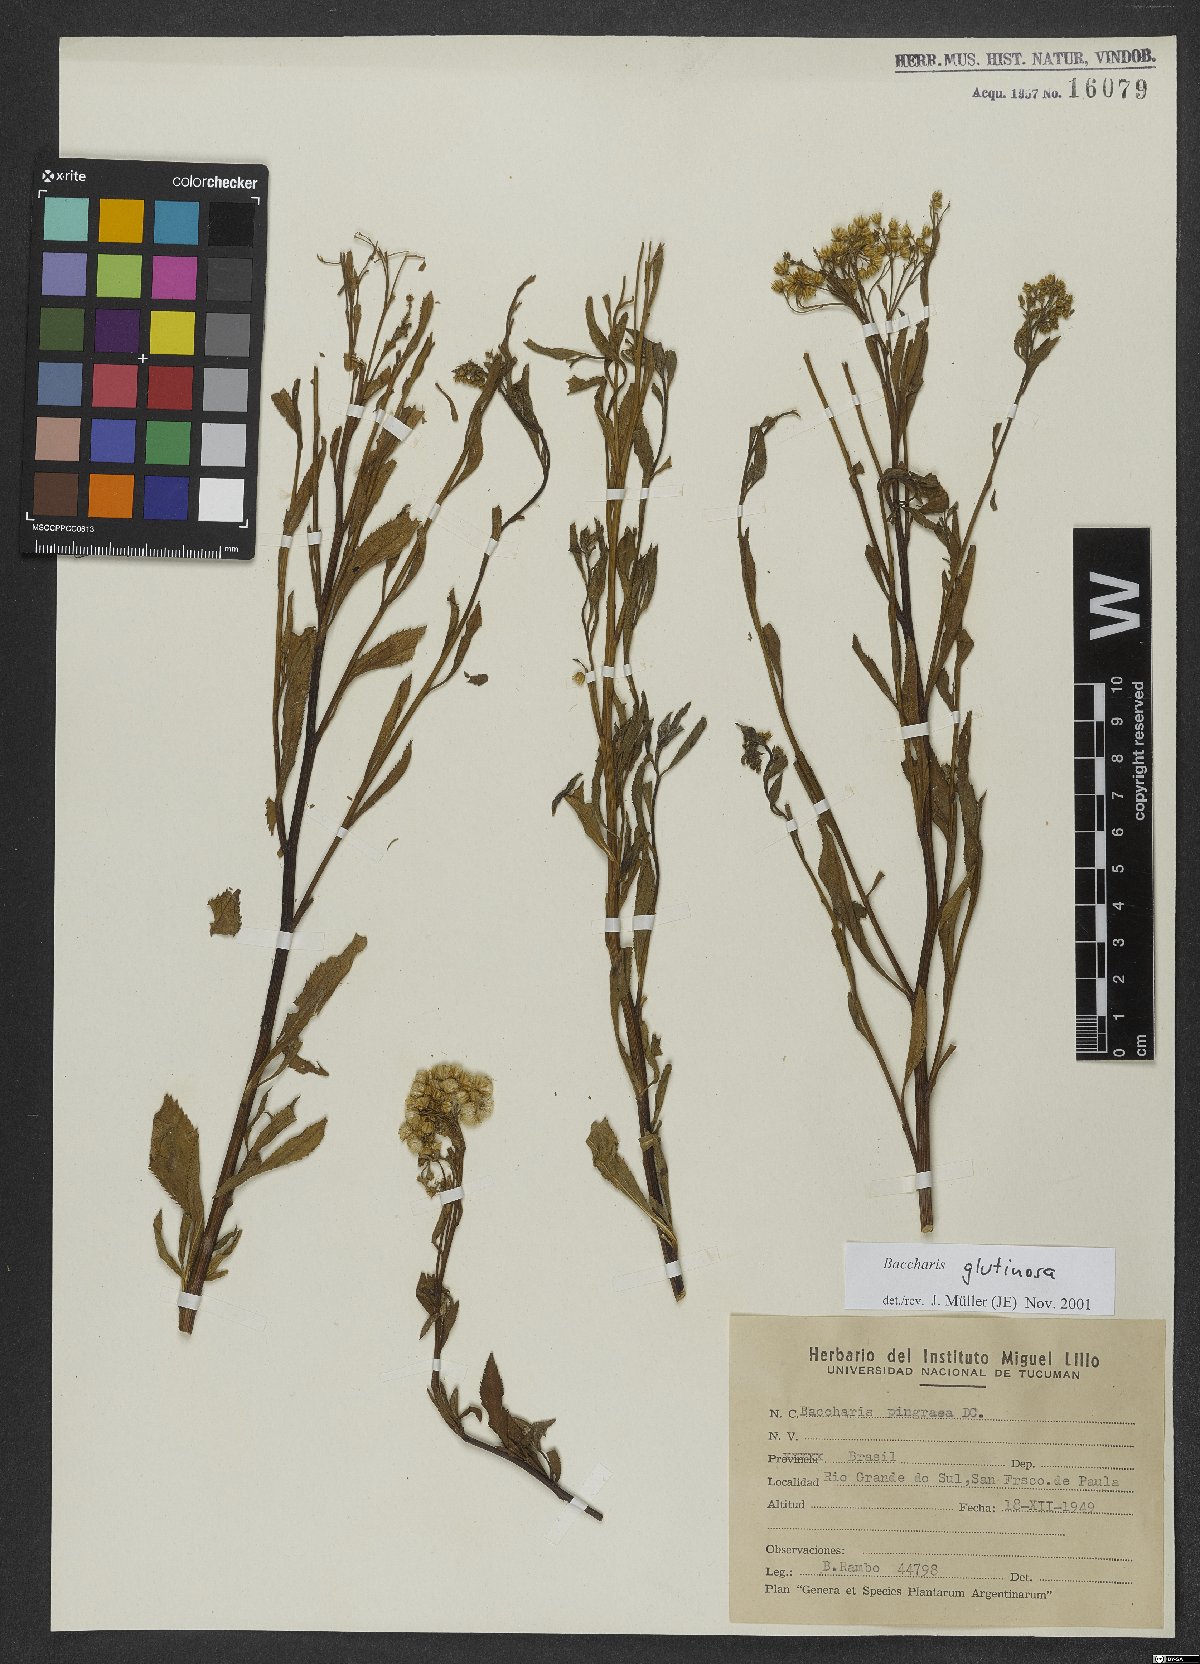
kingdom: Plantae
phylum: Tracheophyta
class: Magnoliopsida
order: Asterales
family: Asteraceae
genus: Baccharis
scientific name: Baccharis glutinosa
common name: Saltmarsh baccharis
